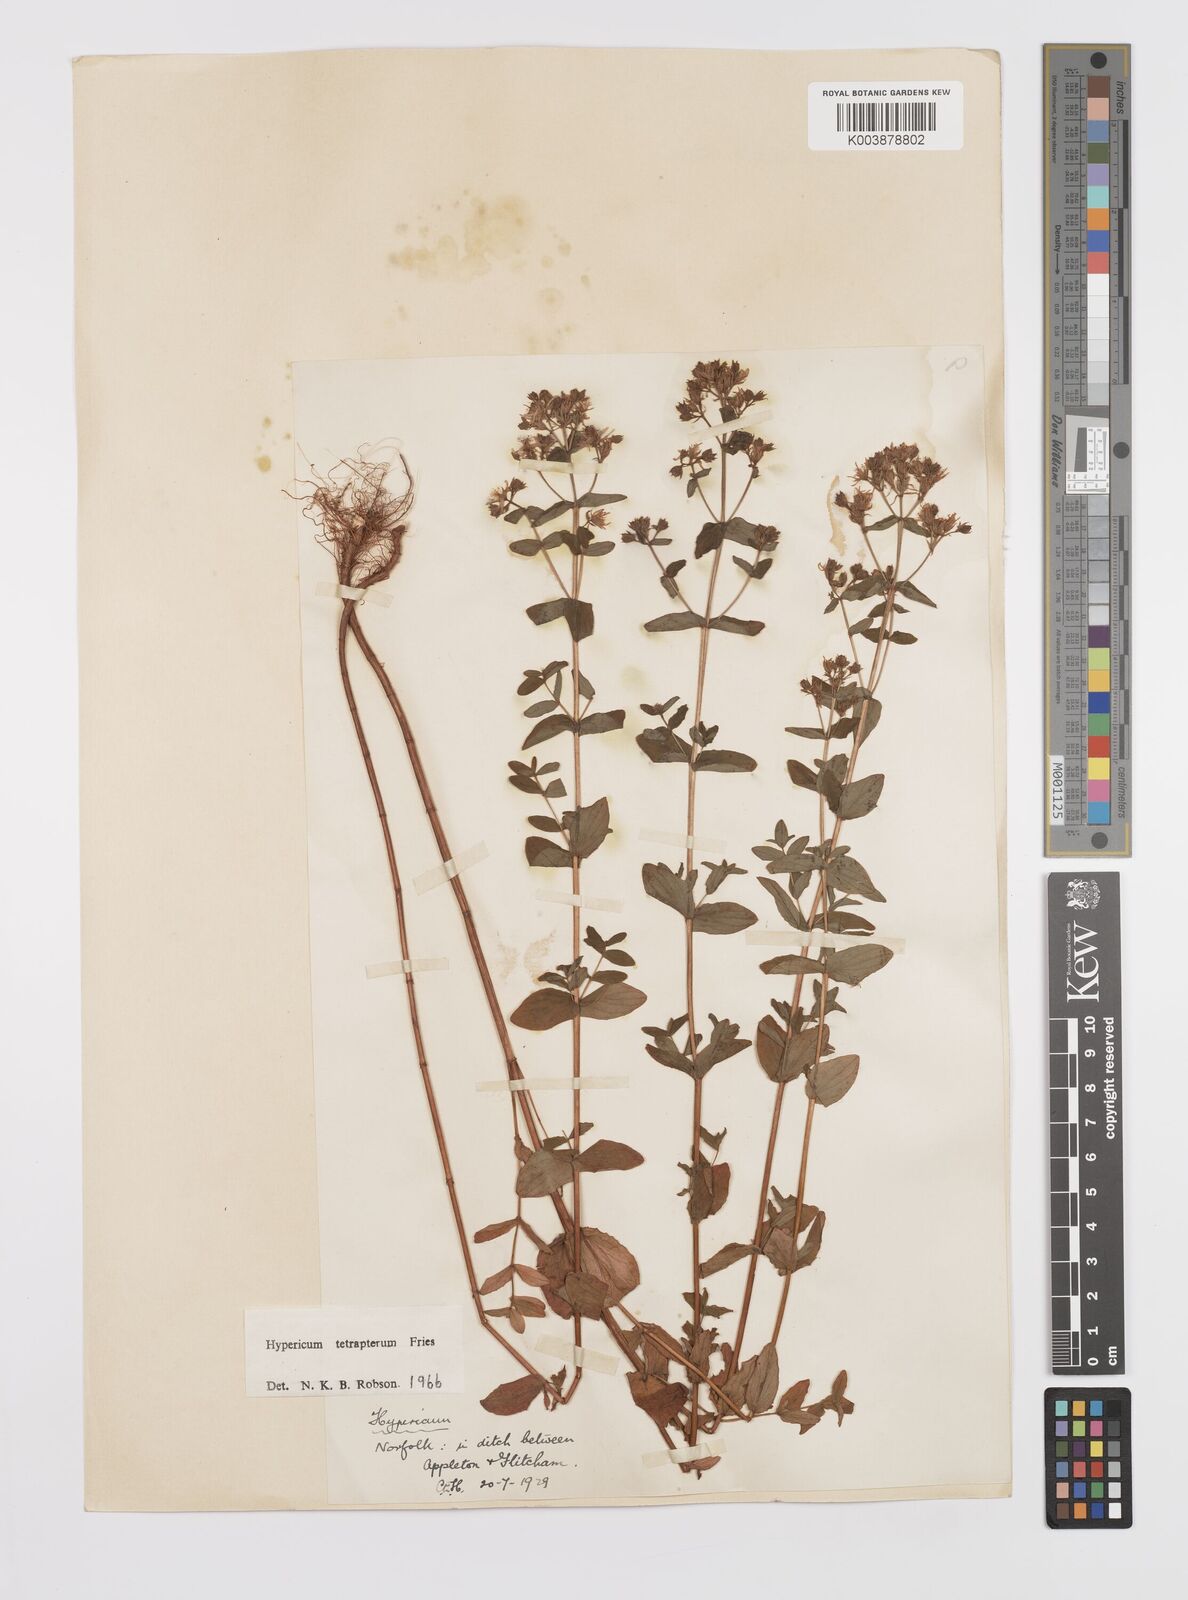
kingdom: Plantae
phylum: Tracheophyta
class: Magnoliopsida
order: Malpighiales
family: Hypericaceae
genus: Hypericum
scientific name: Hypericum tetrapterum
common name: Square-stalked st. john's-wort
